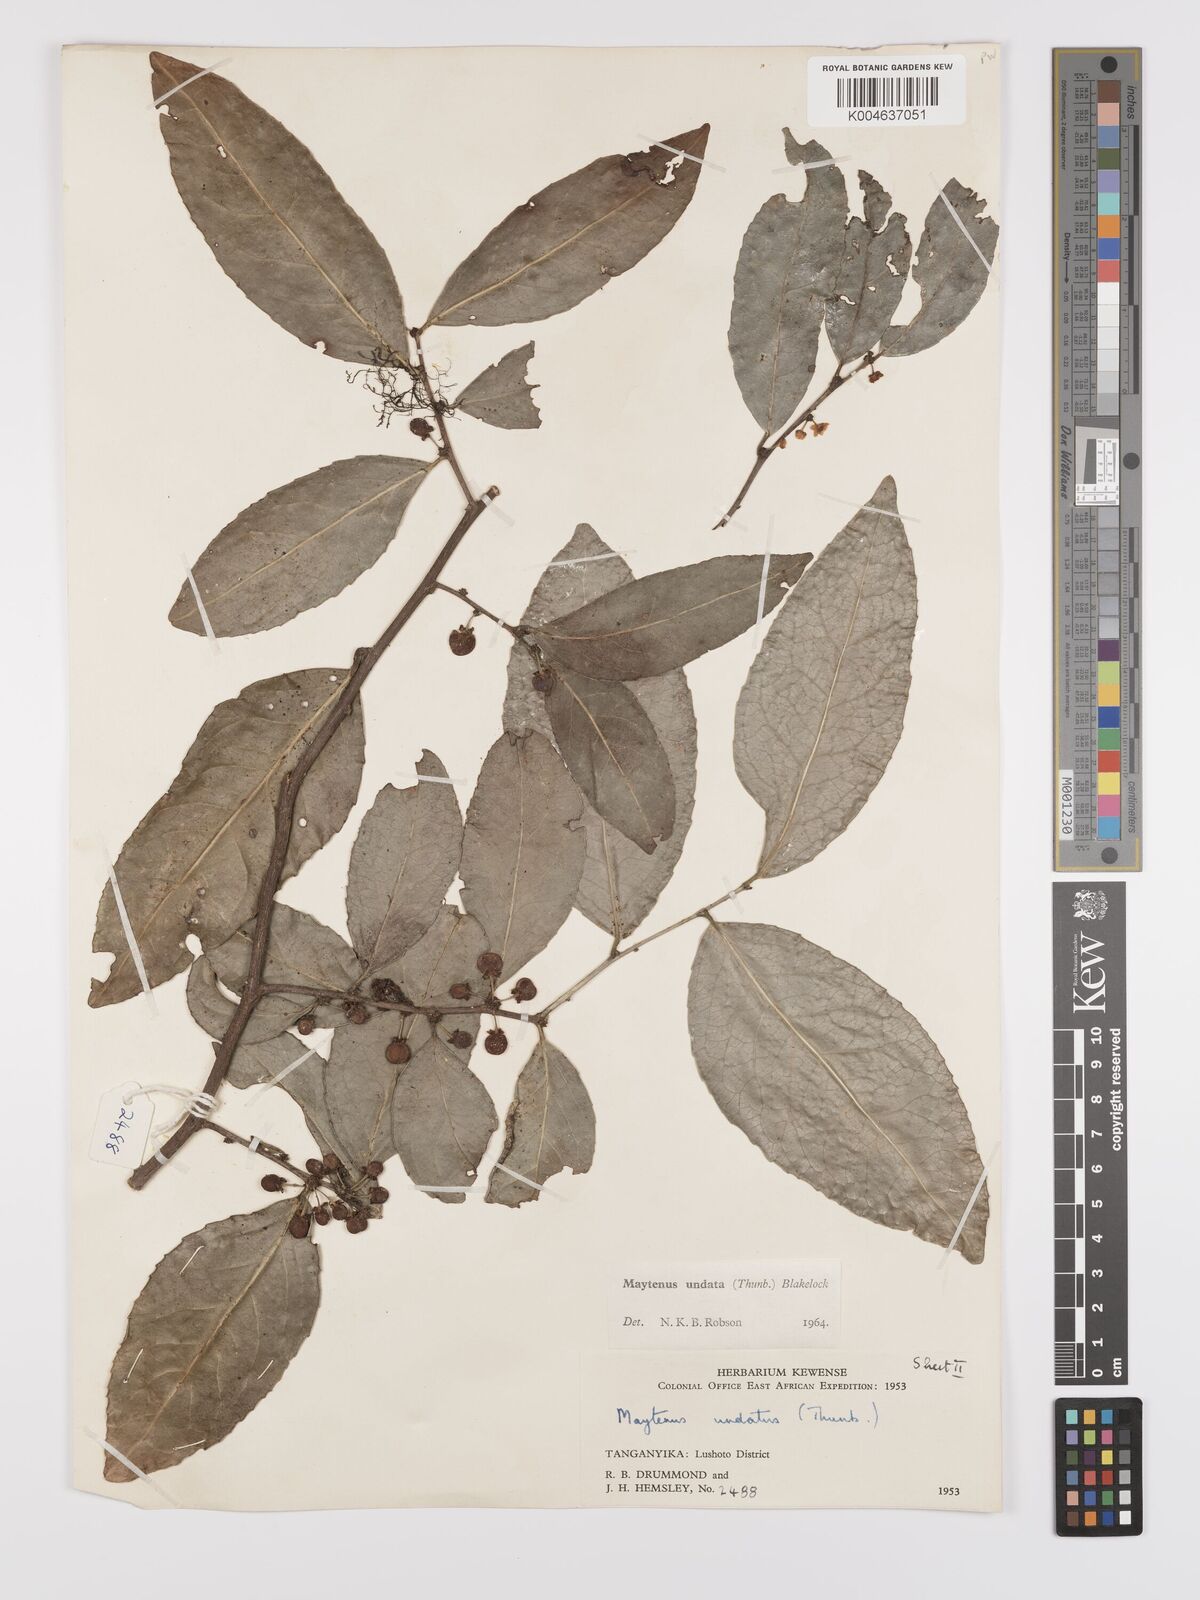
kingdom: Plantae
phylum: Tracheophyta
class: Magnoliopsida
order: Celastrales
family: Celastraceae
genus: Gymnosporia
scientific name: Gymnosporia undata
